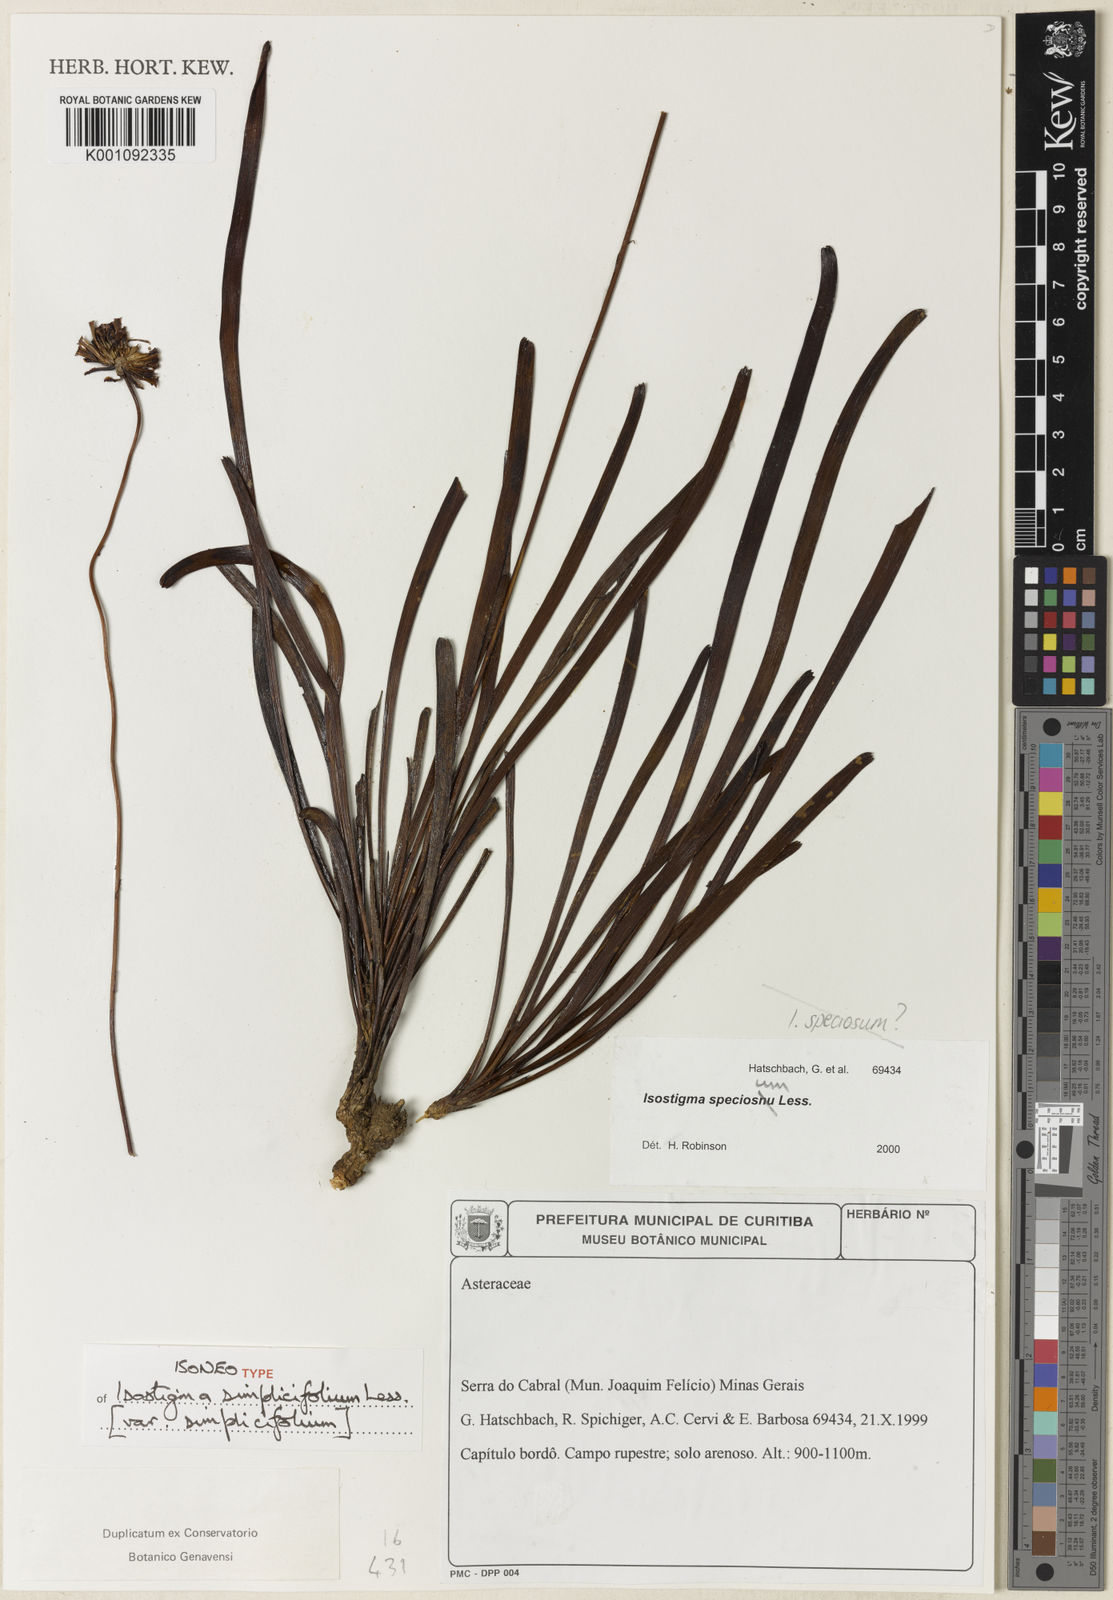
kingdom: Plantae
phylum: Tracheophyta
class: Magnoliopsida
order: Asterales
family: Asteraceae
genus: Isostigma
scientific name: Isostigma simplicifolium
